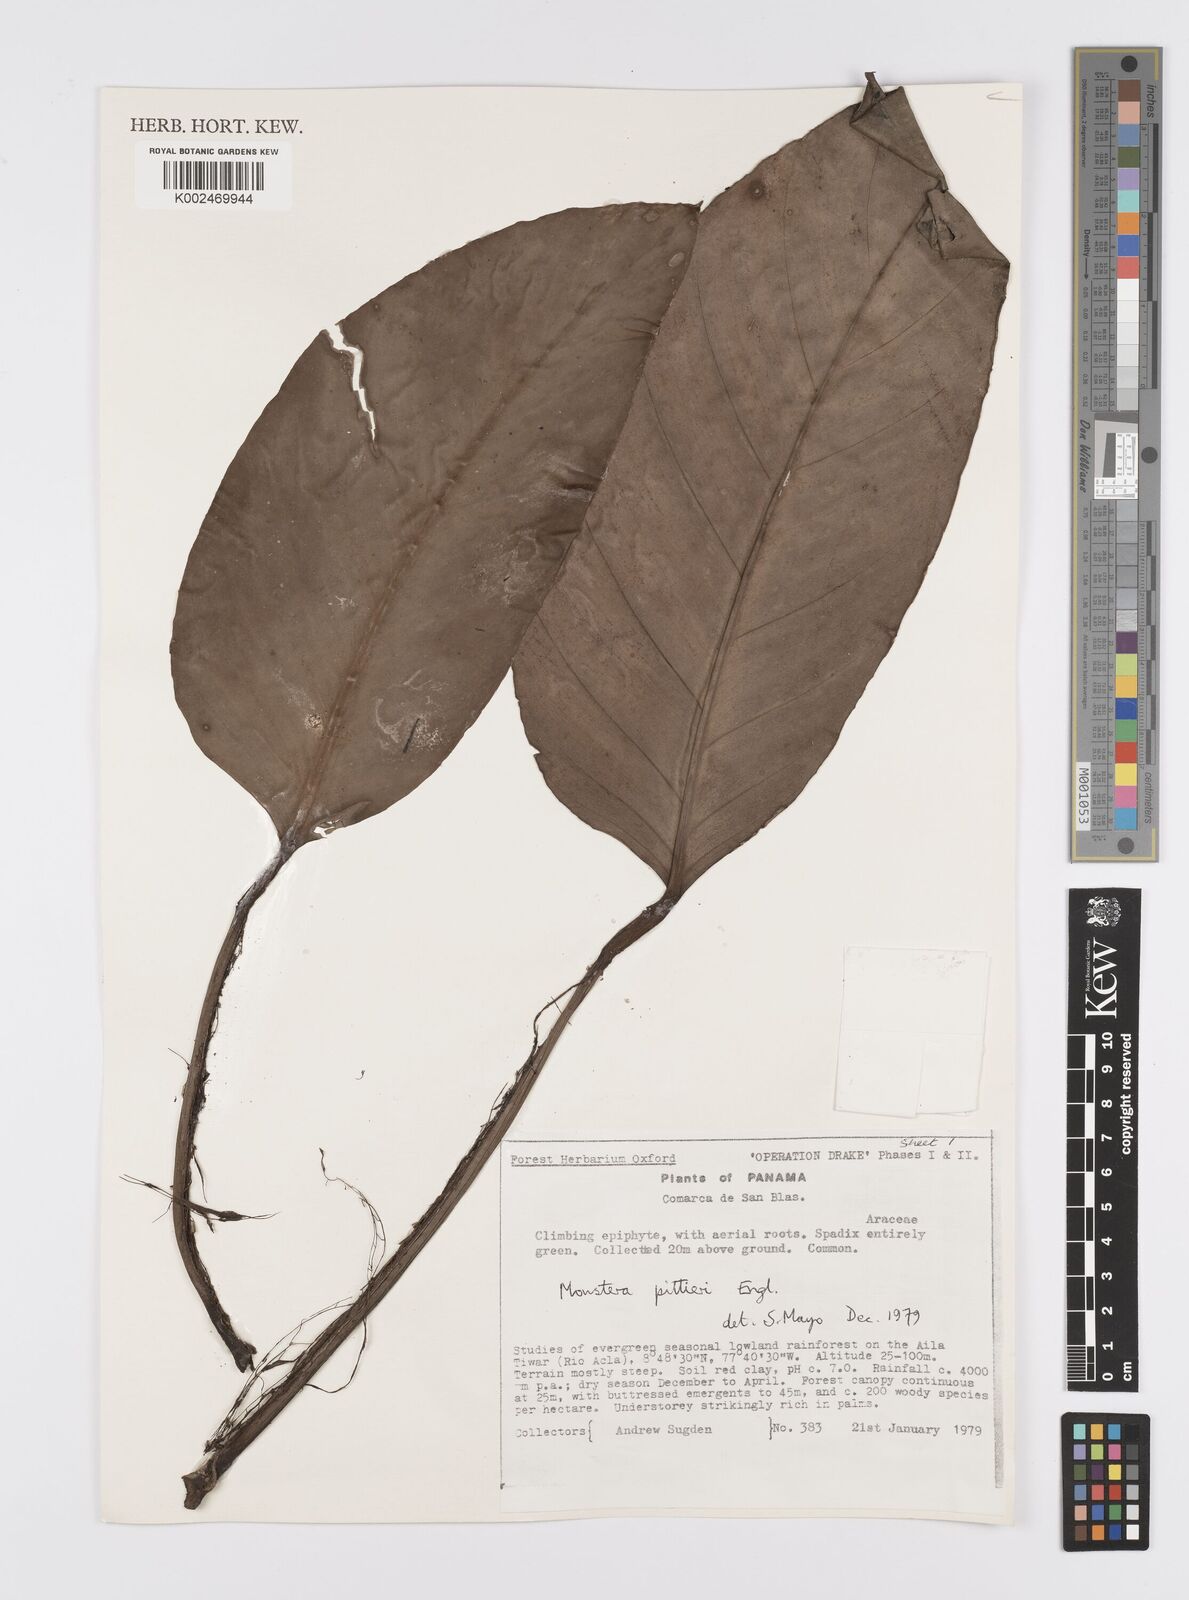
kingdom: Plantae
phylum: Tracheophyta
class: Liliopsida
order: Alismatales
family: Araceae
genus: Monstera
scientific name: Monstera pittieri
